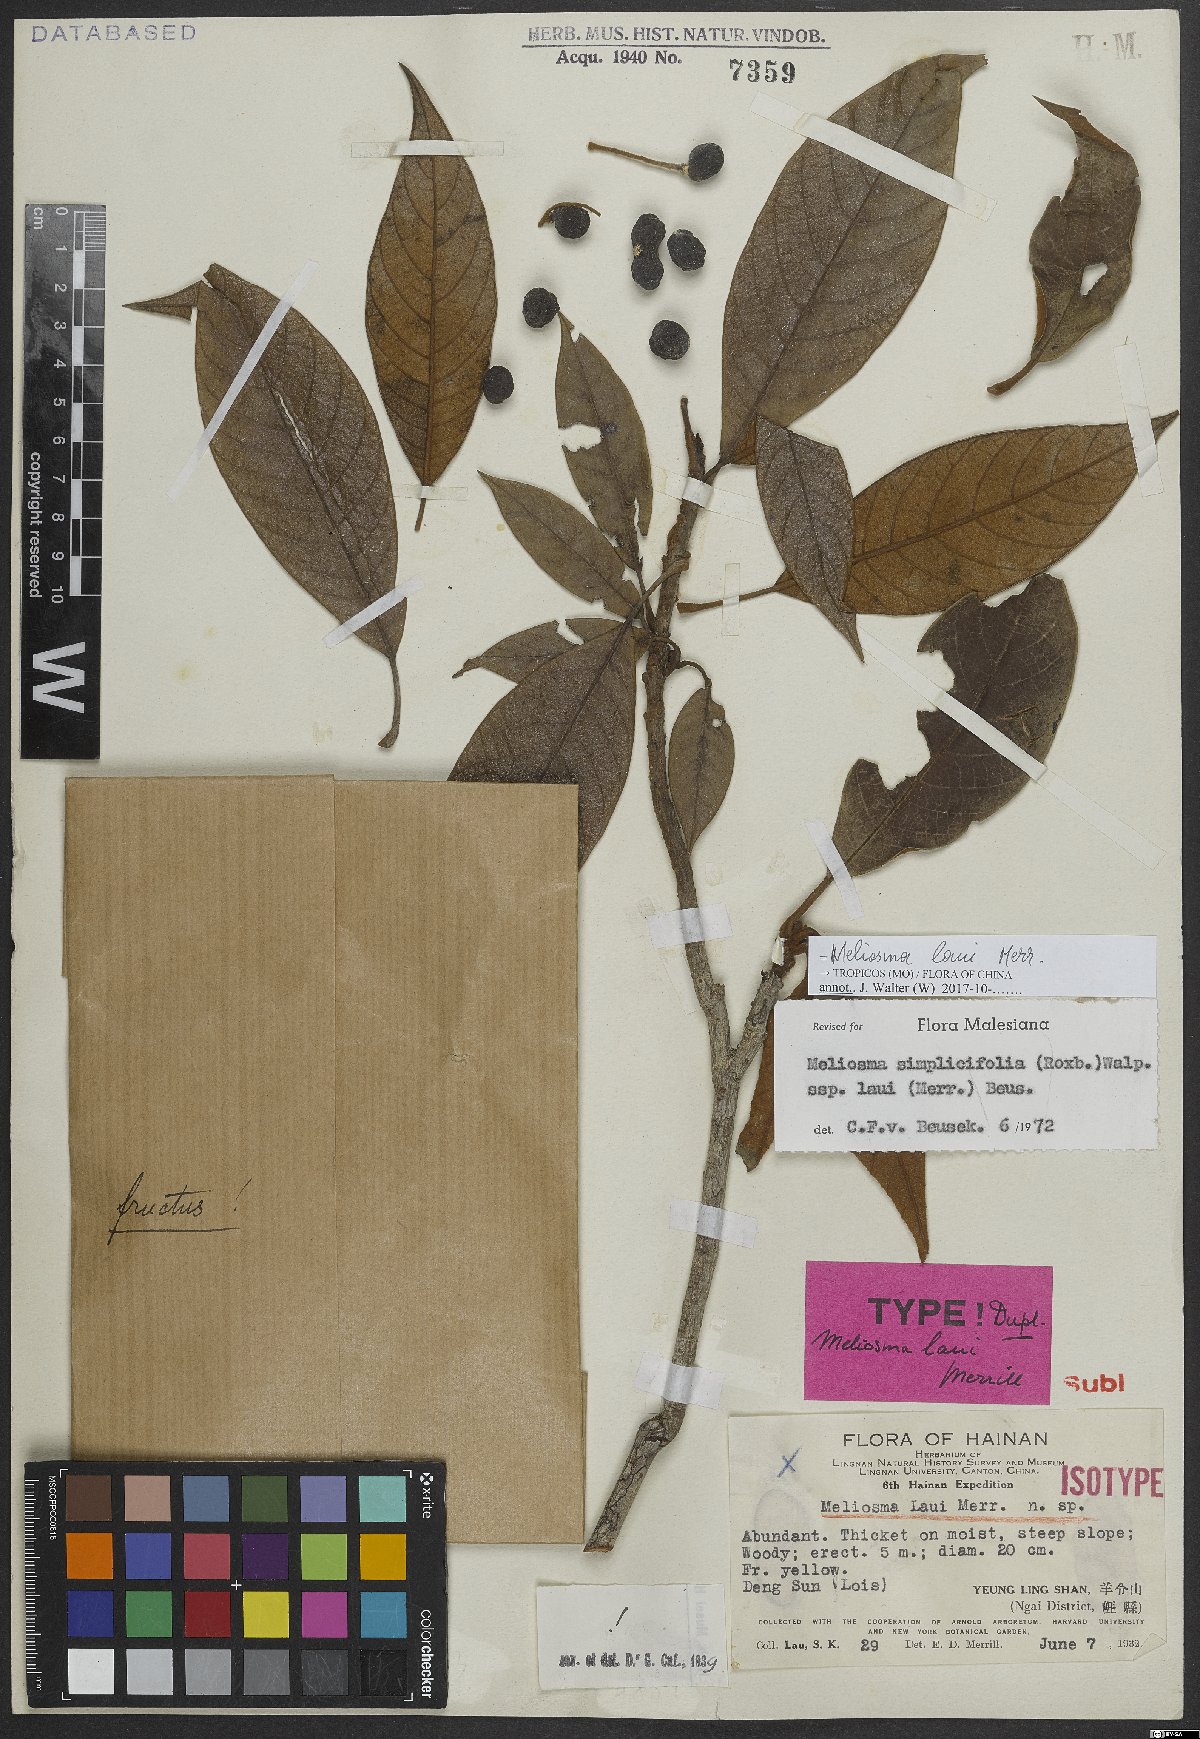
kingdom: Plantae
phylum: Tracheophyta
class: Magnoliopsida
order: Proteales
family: Sabiaceae
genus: Meliosma
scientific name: Meliosma laui
